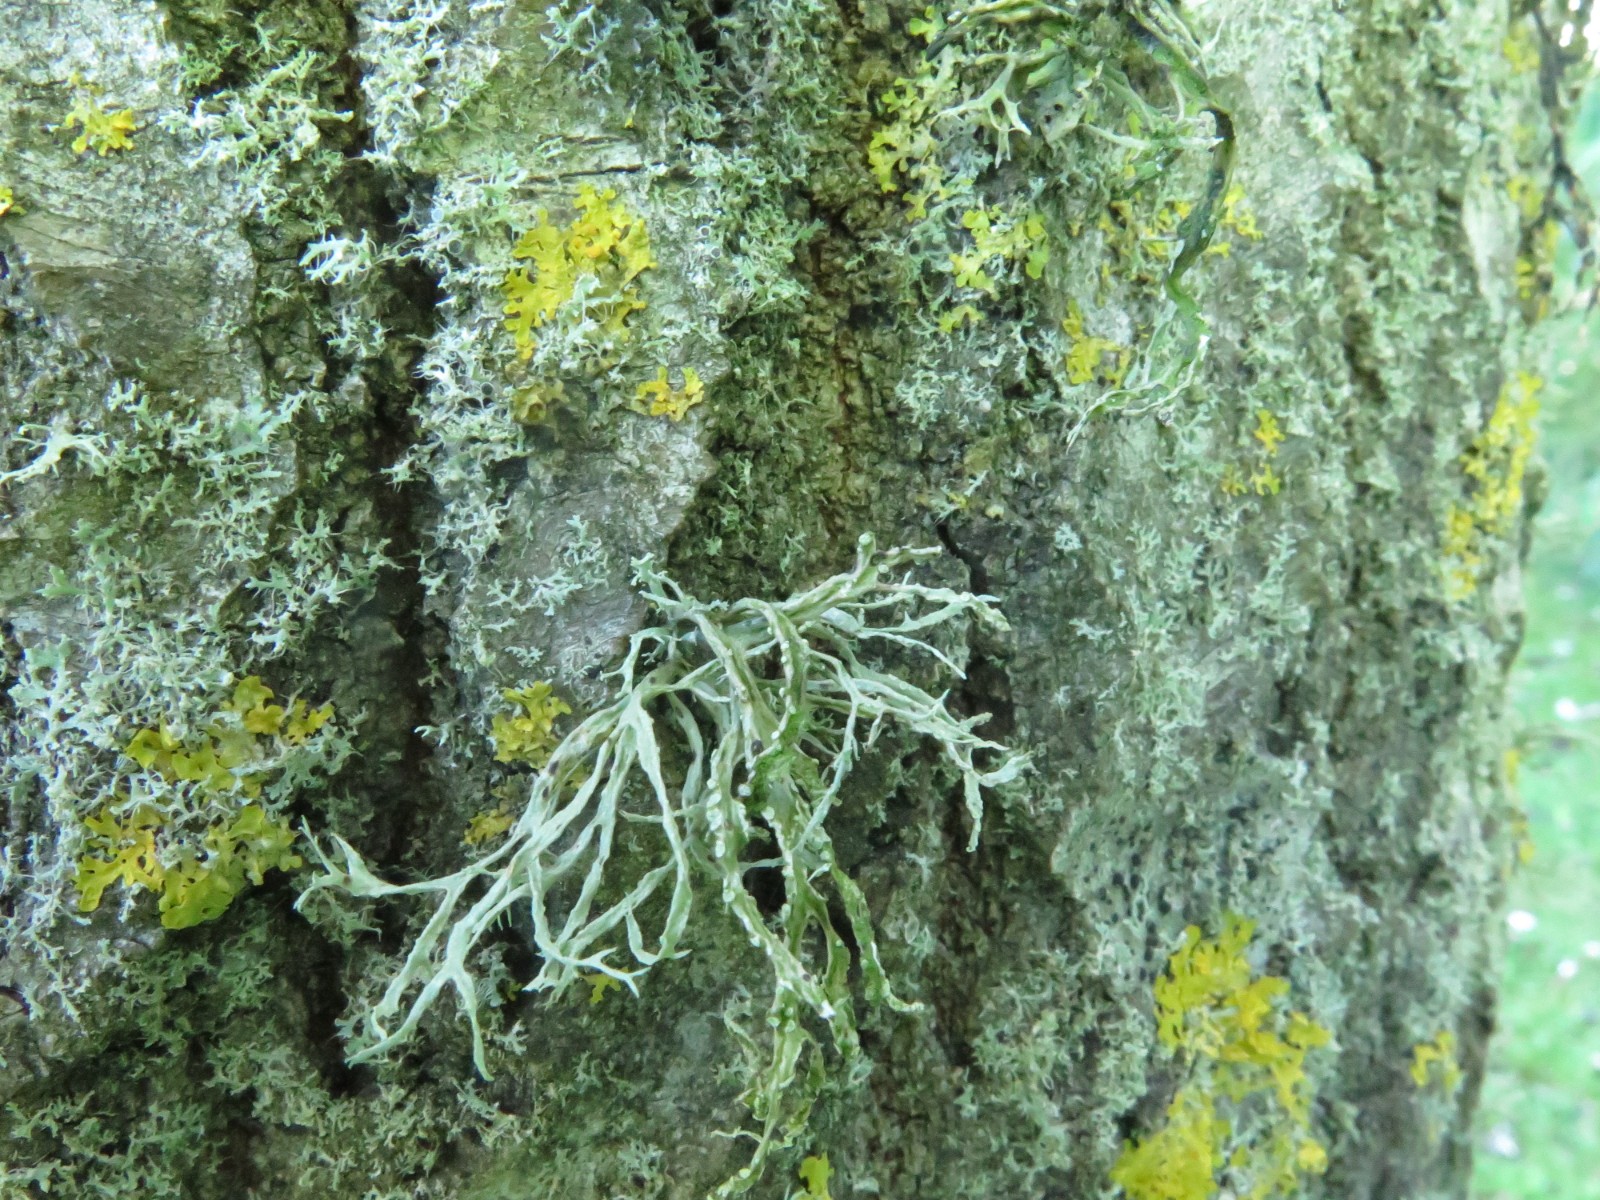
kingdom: Fungi
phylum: Ascomycota
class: Lecanoromycetes
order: Lecanorales
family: Ramalinaceae
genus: Ramalina
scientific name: Ramalina farinacea
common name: melet grenlav
